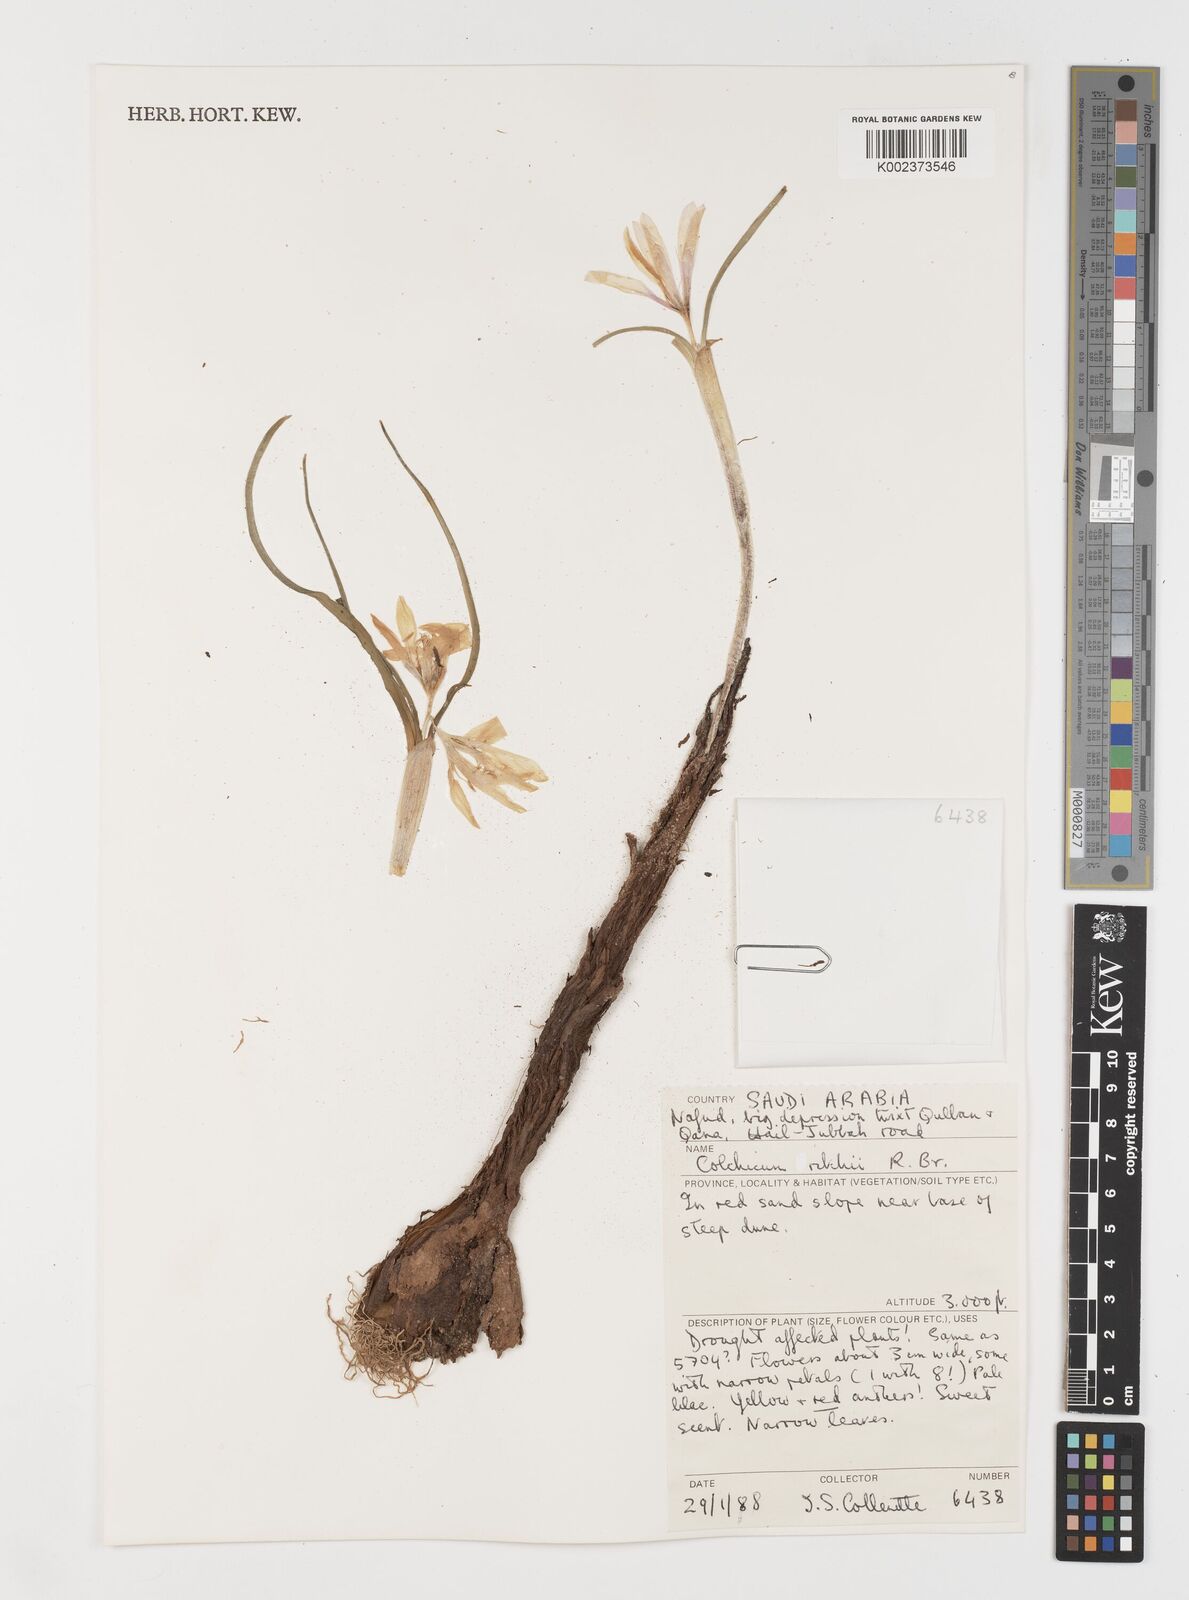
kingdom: Plantae
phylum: Tracheophyta
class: Liliopsida
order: Liliales
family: Colchicaceae
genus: Colchicum
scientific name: Colchicum ritchii
